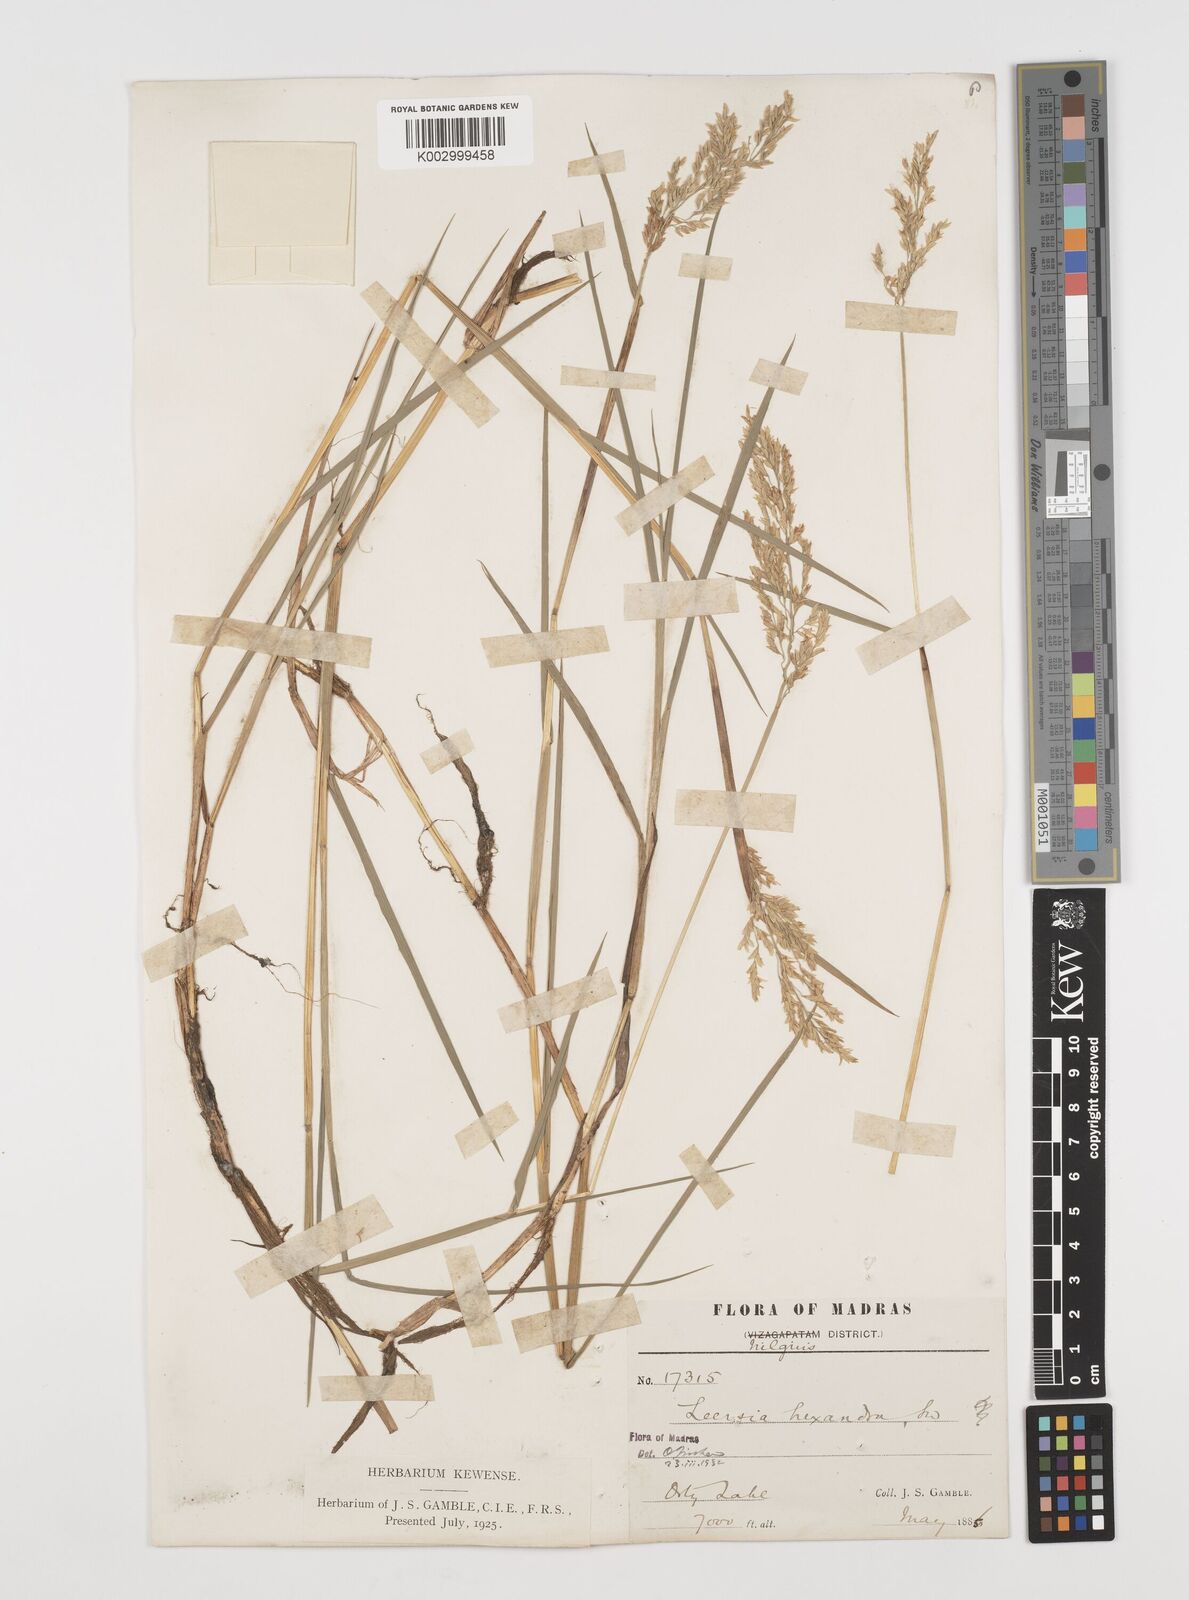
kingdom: Plantae
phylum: Tracheophyta
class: Liliopsida
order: Poales
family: Poaceae
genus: Leersia
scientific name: Leersia hexandra
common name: Southern cut grass
